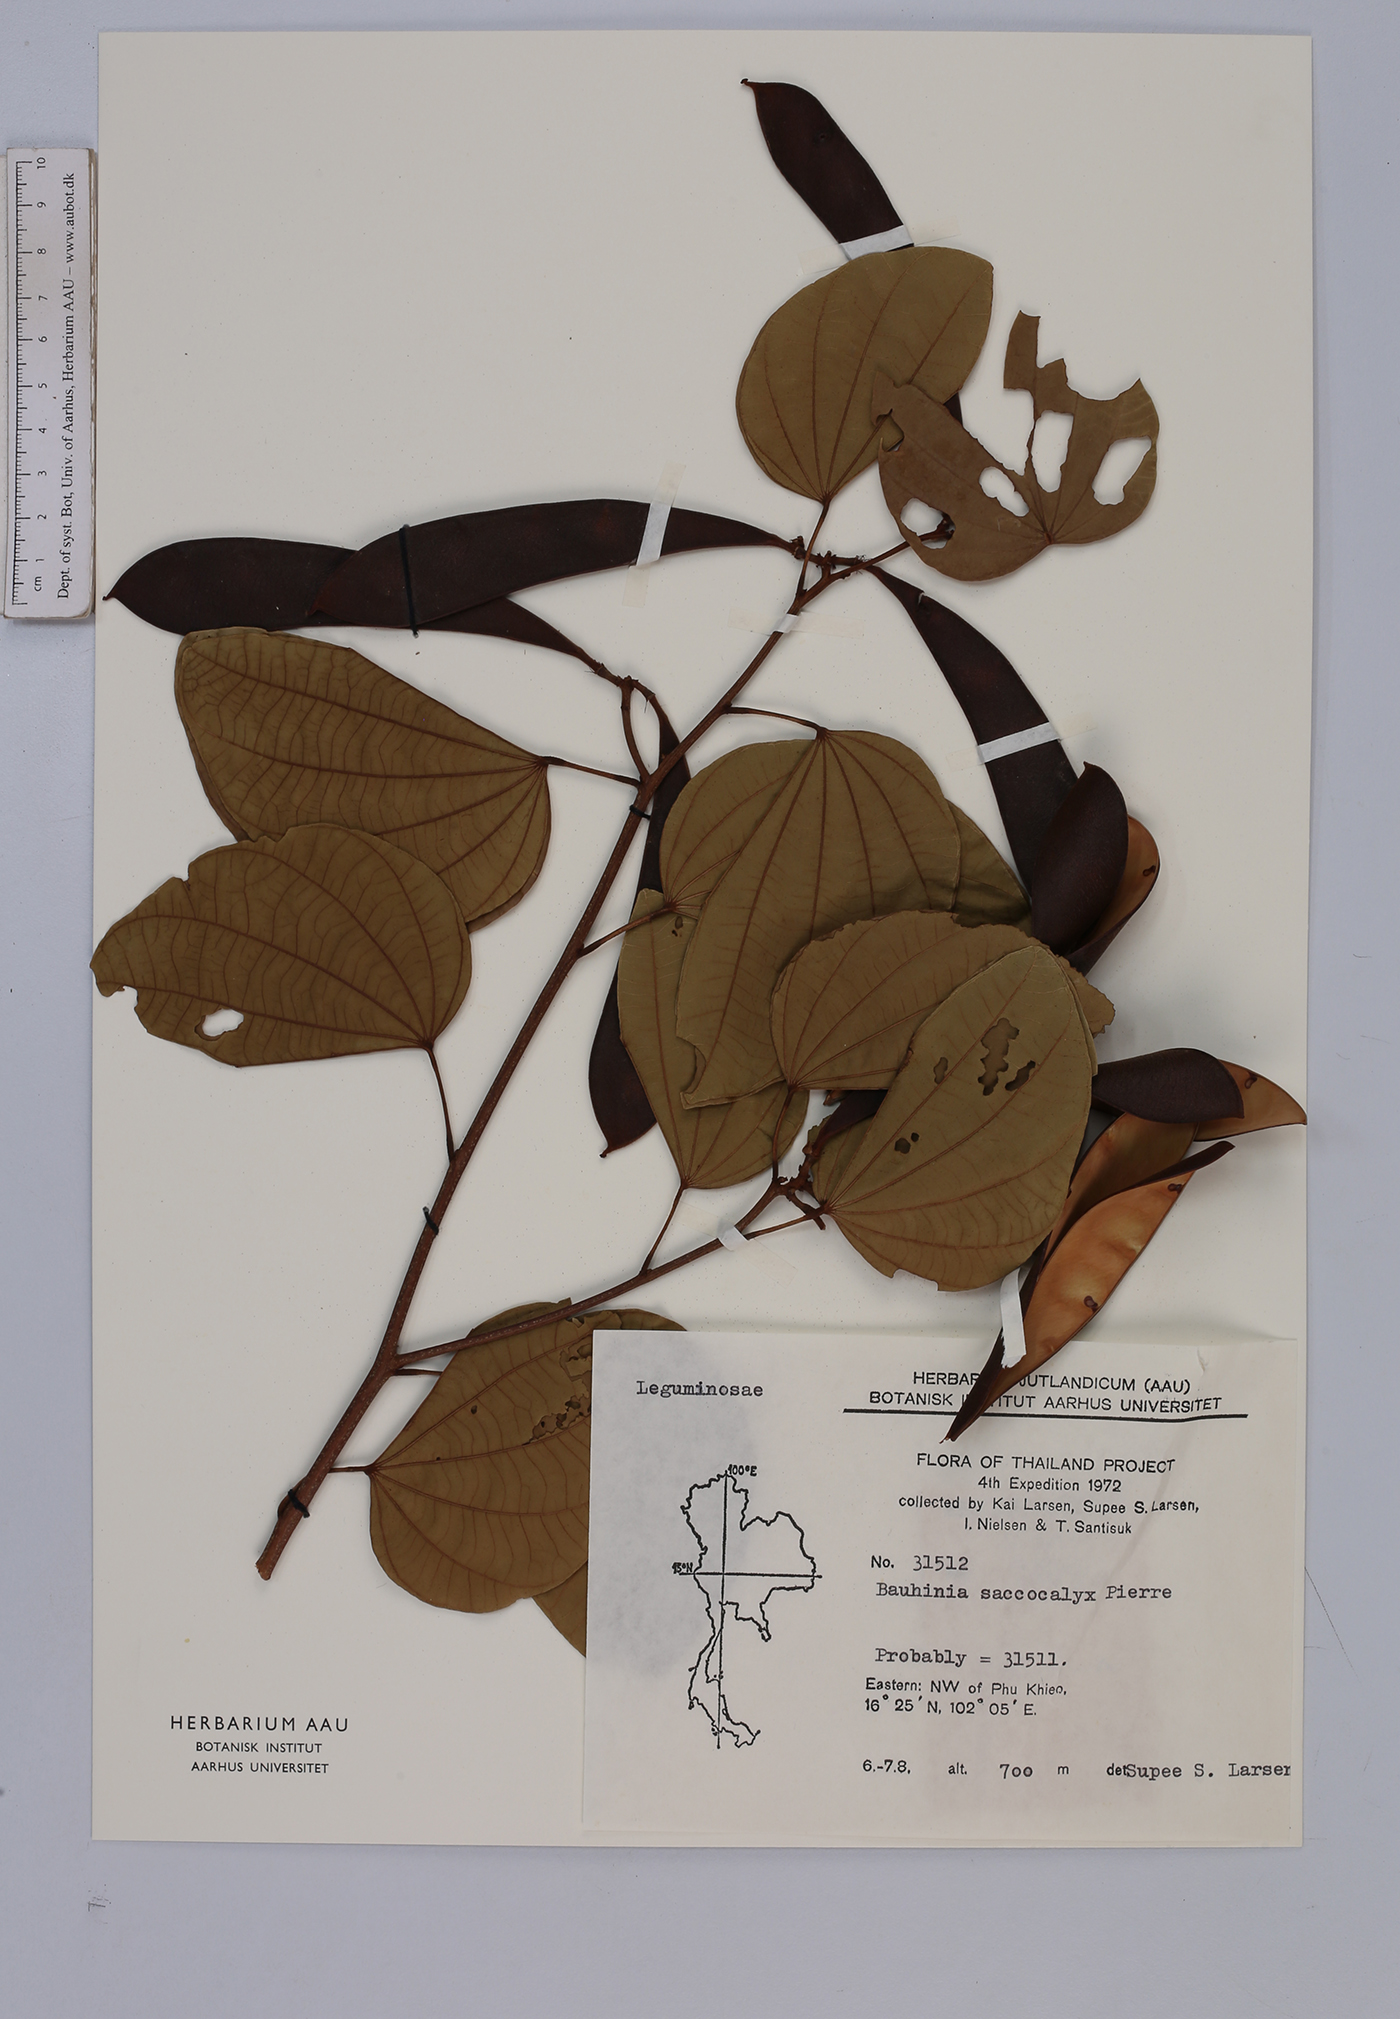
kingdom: Plantae
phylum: Tracheophyta
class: Magnoliopsida
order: Fabales
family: Fabaceae
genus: Bauhinia
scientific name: Bauhinia saccocalyx
